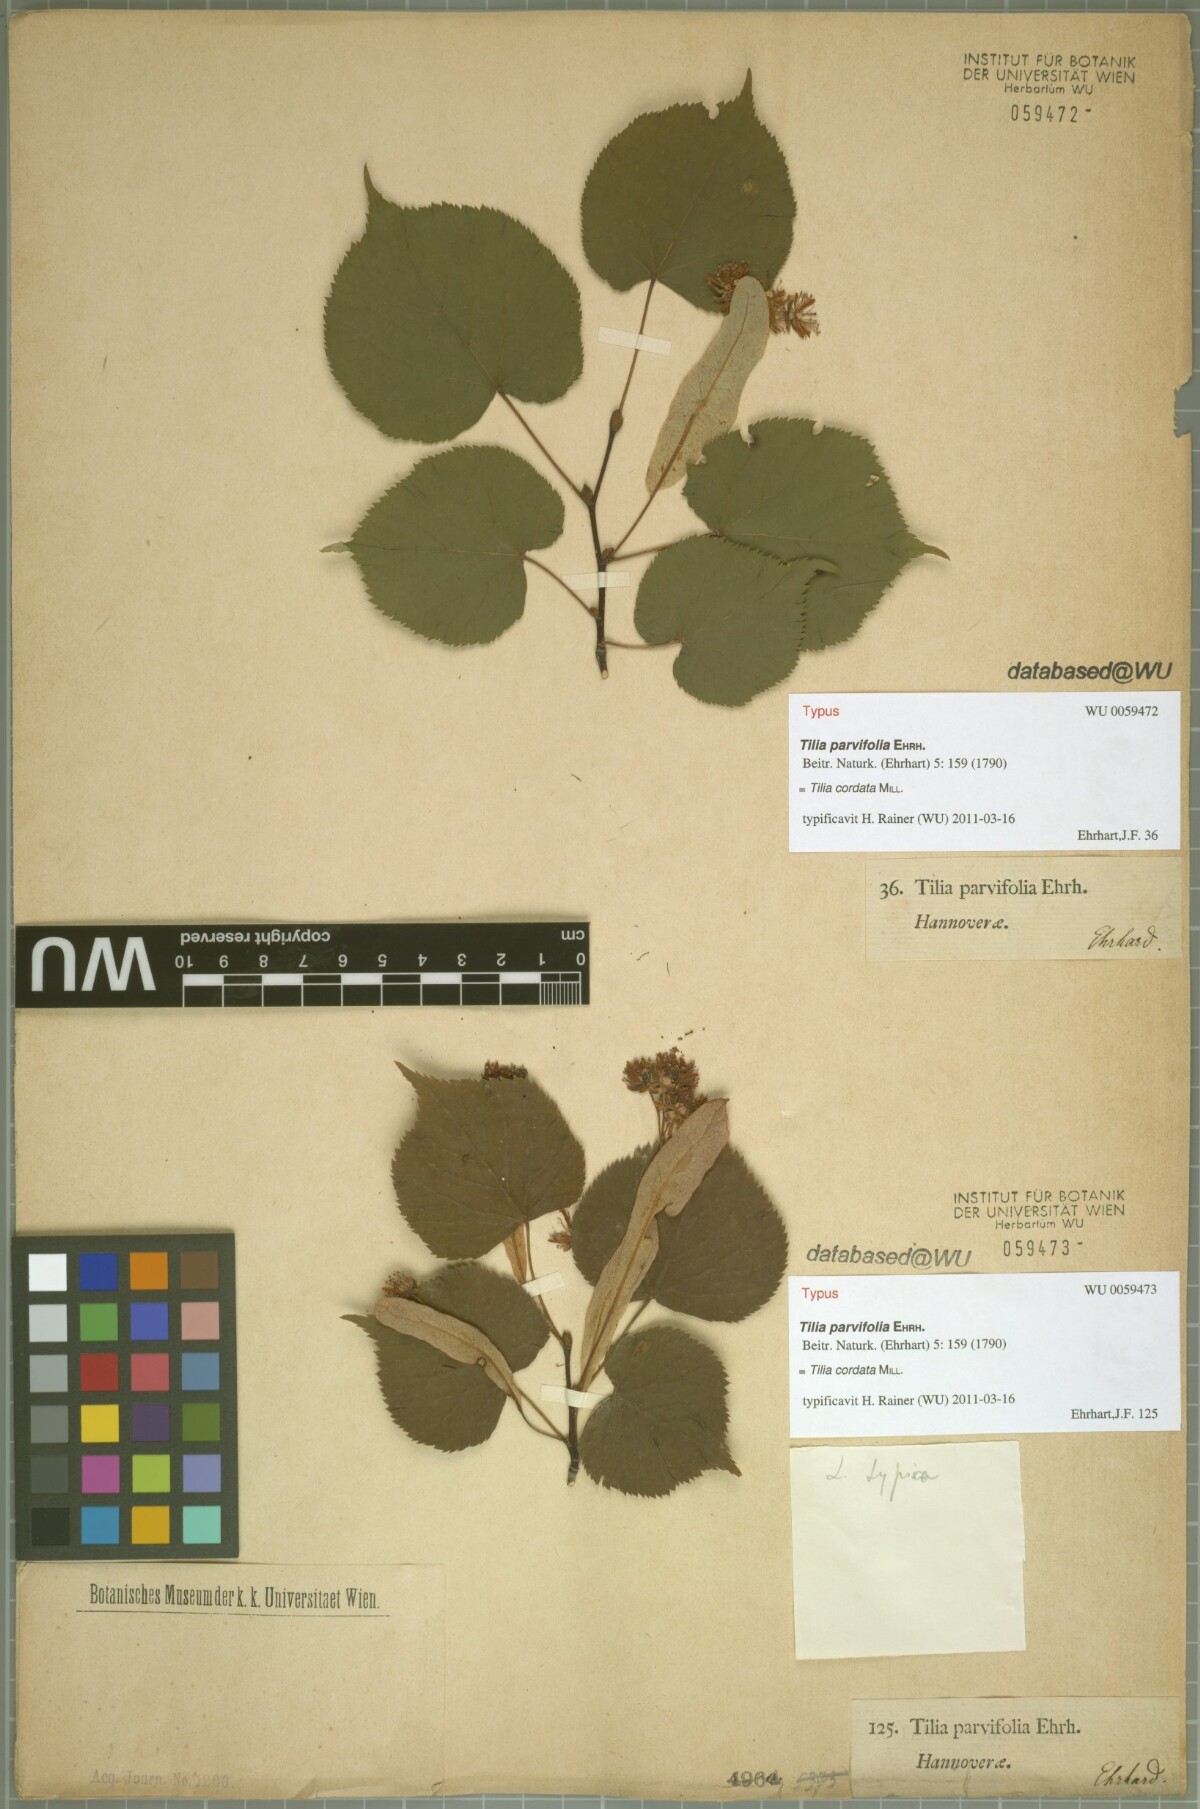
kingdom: Plantae
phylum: Tracheophyta
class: Magnoliopsida
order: Malvales
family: Malvaceae
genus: Tilia
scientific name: Tilia cordata
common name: Small-leaved lime
